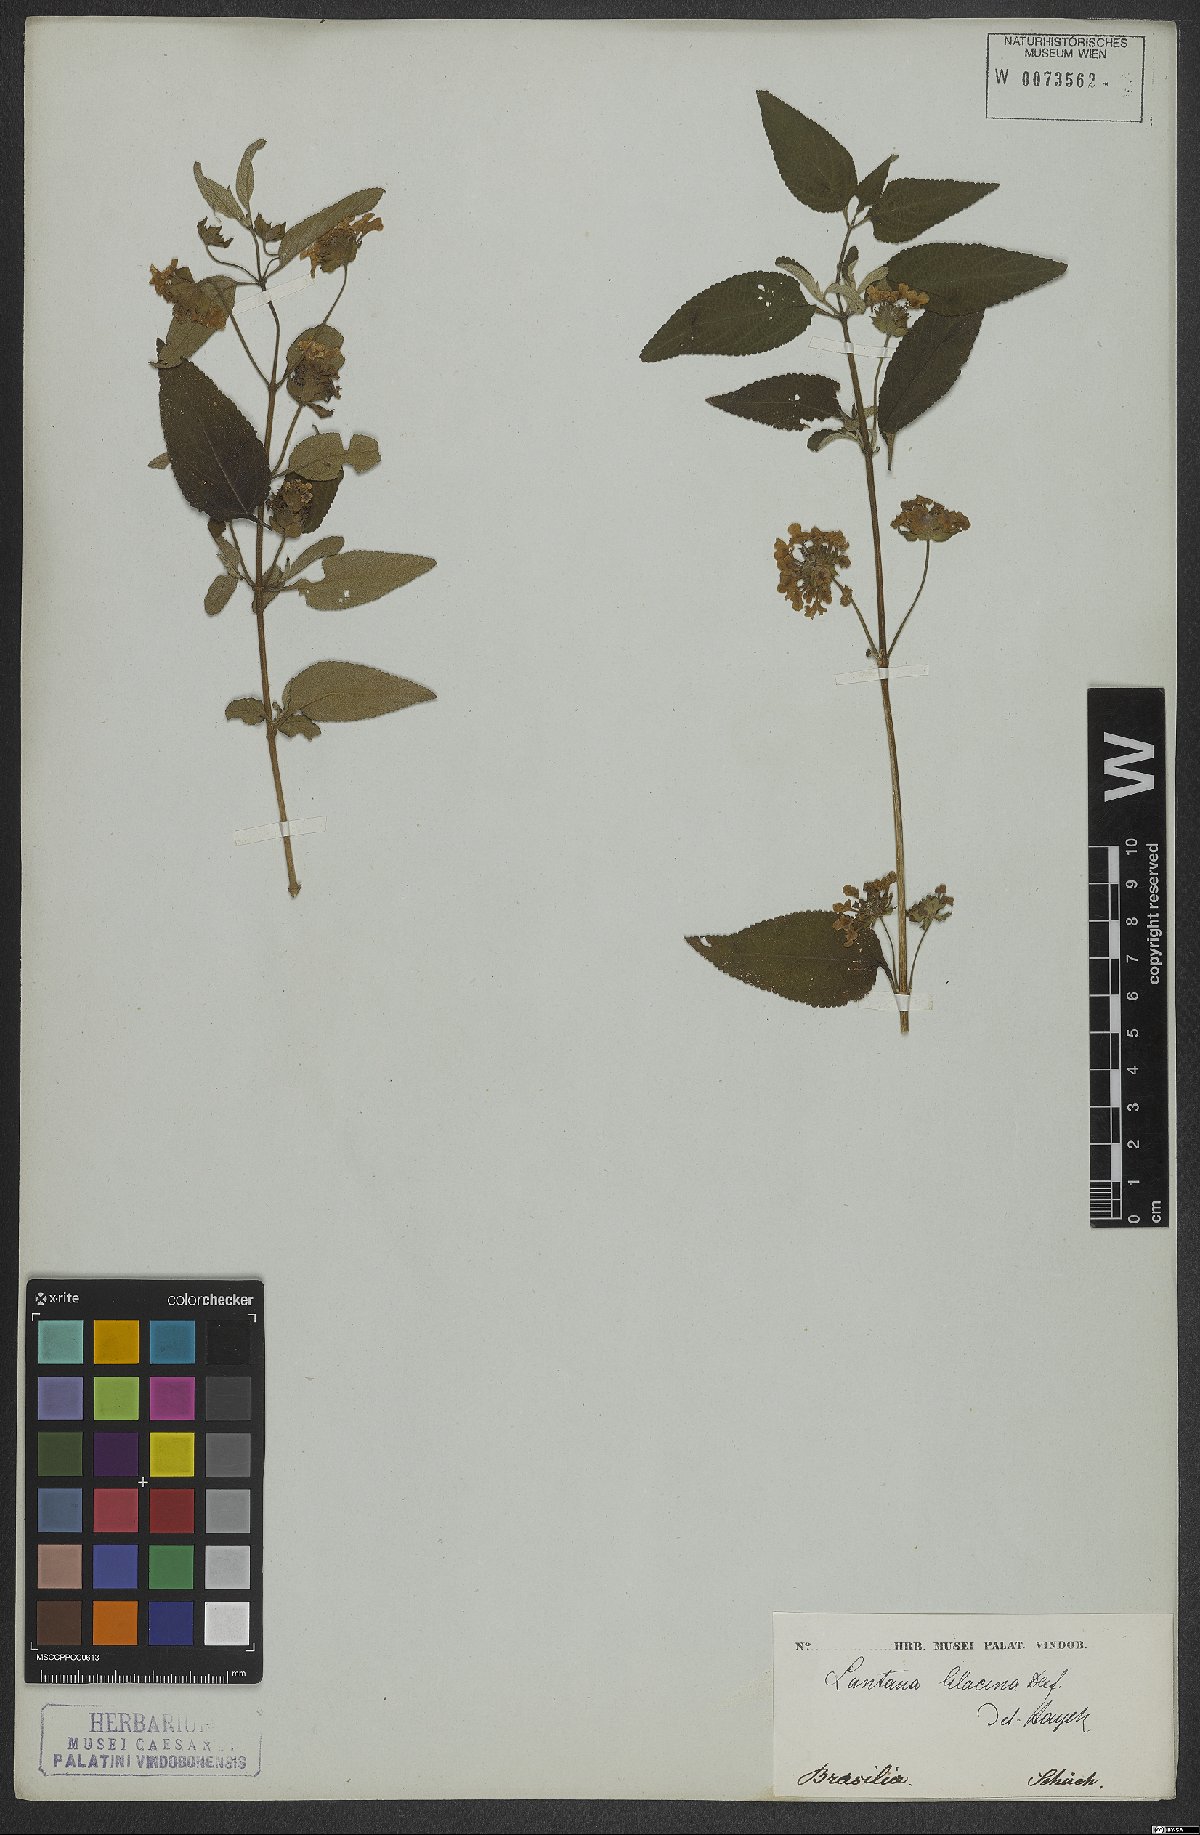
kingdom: Plantae
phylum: Tracheophyta
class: Magnoliopsida
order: Lamiales
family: Verbenaceae
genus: Lantana
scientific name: Lantana fucata
